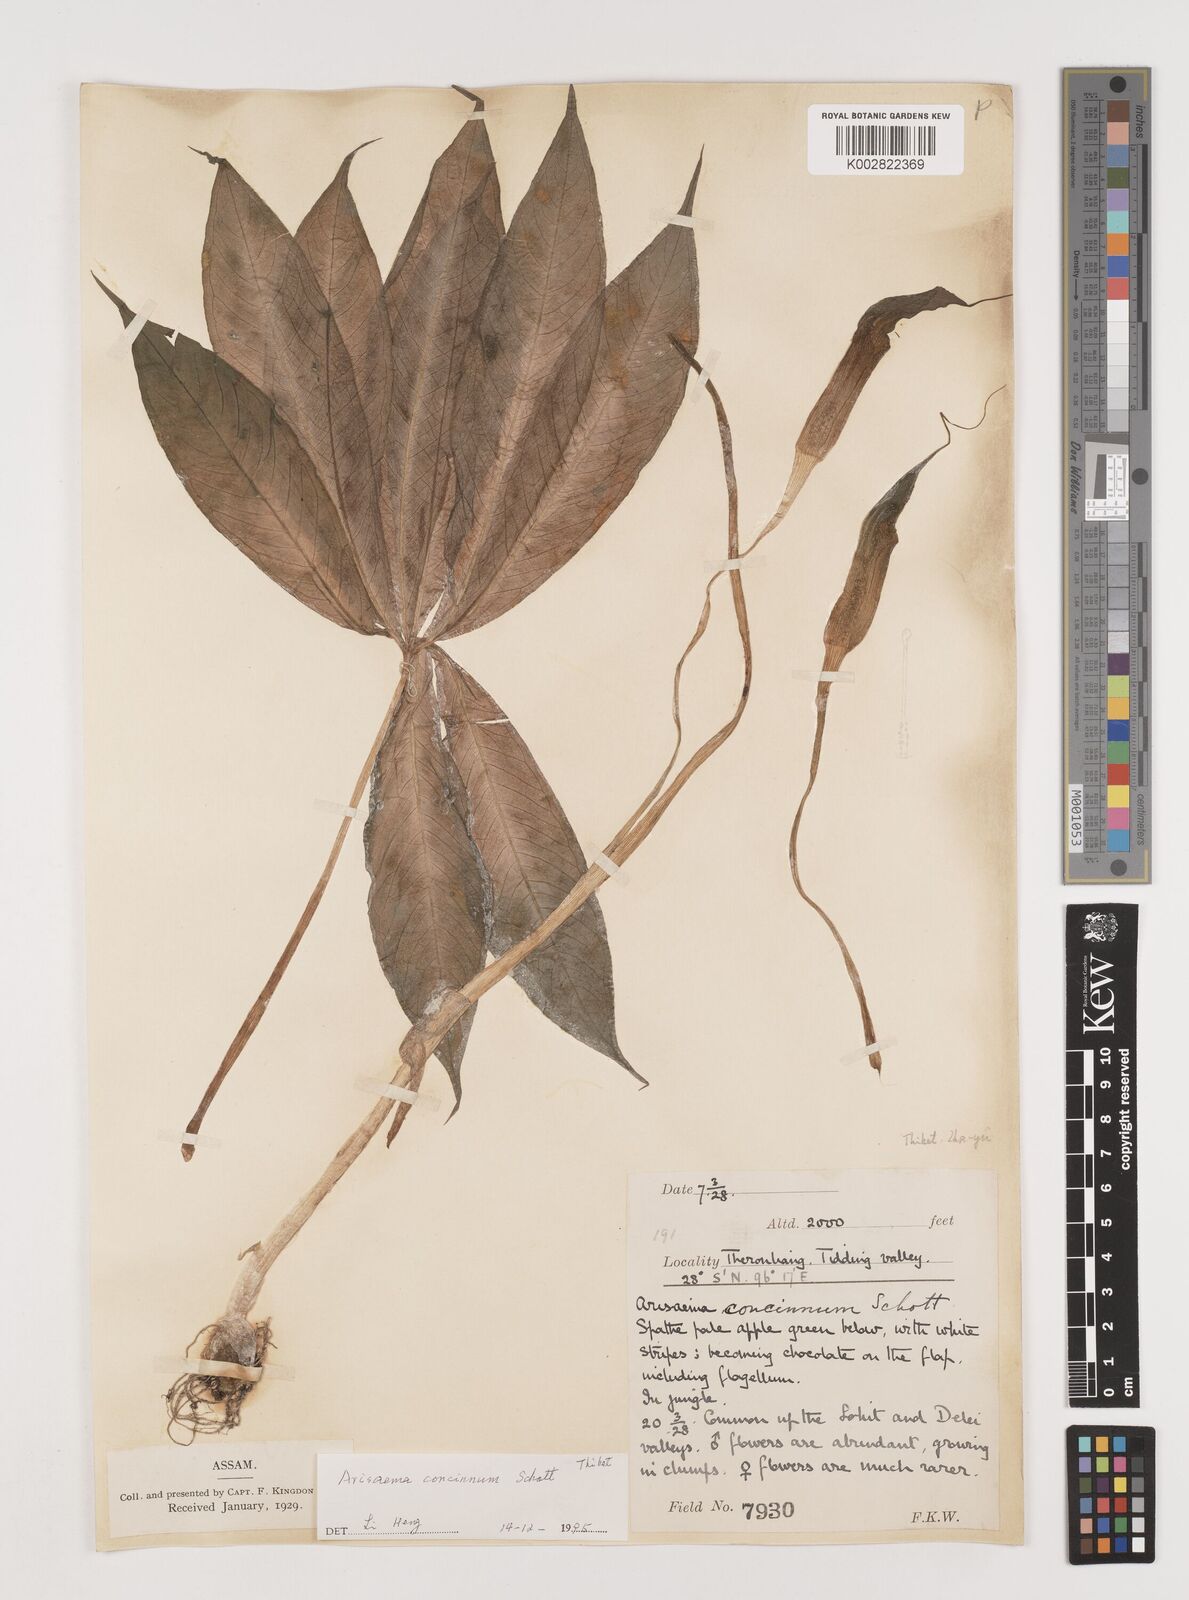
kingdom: Plantae
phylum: Tracheophyta
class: Liliopsida
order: Alismatales
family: Araceae
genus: Arisaema
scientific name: Arisaema concinnum
